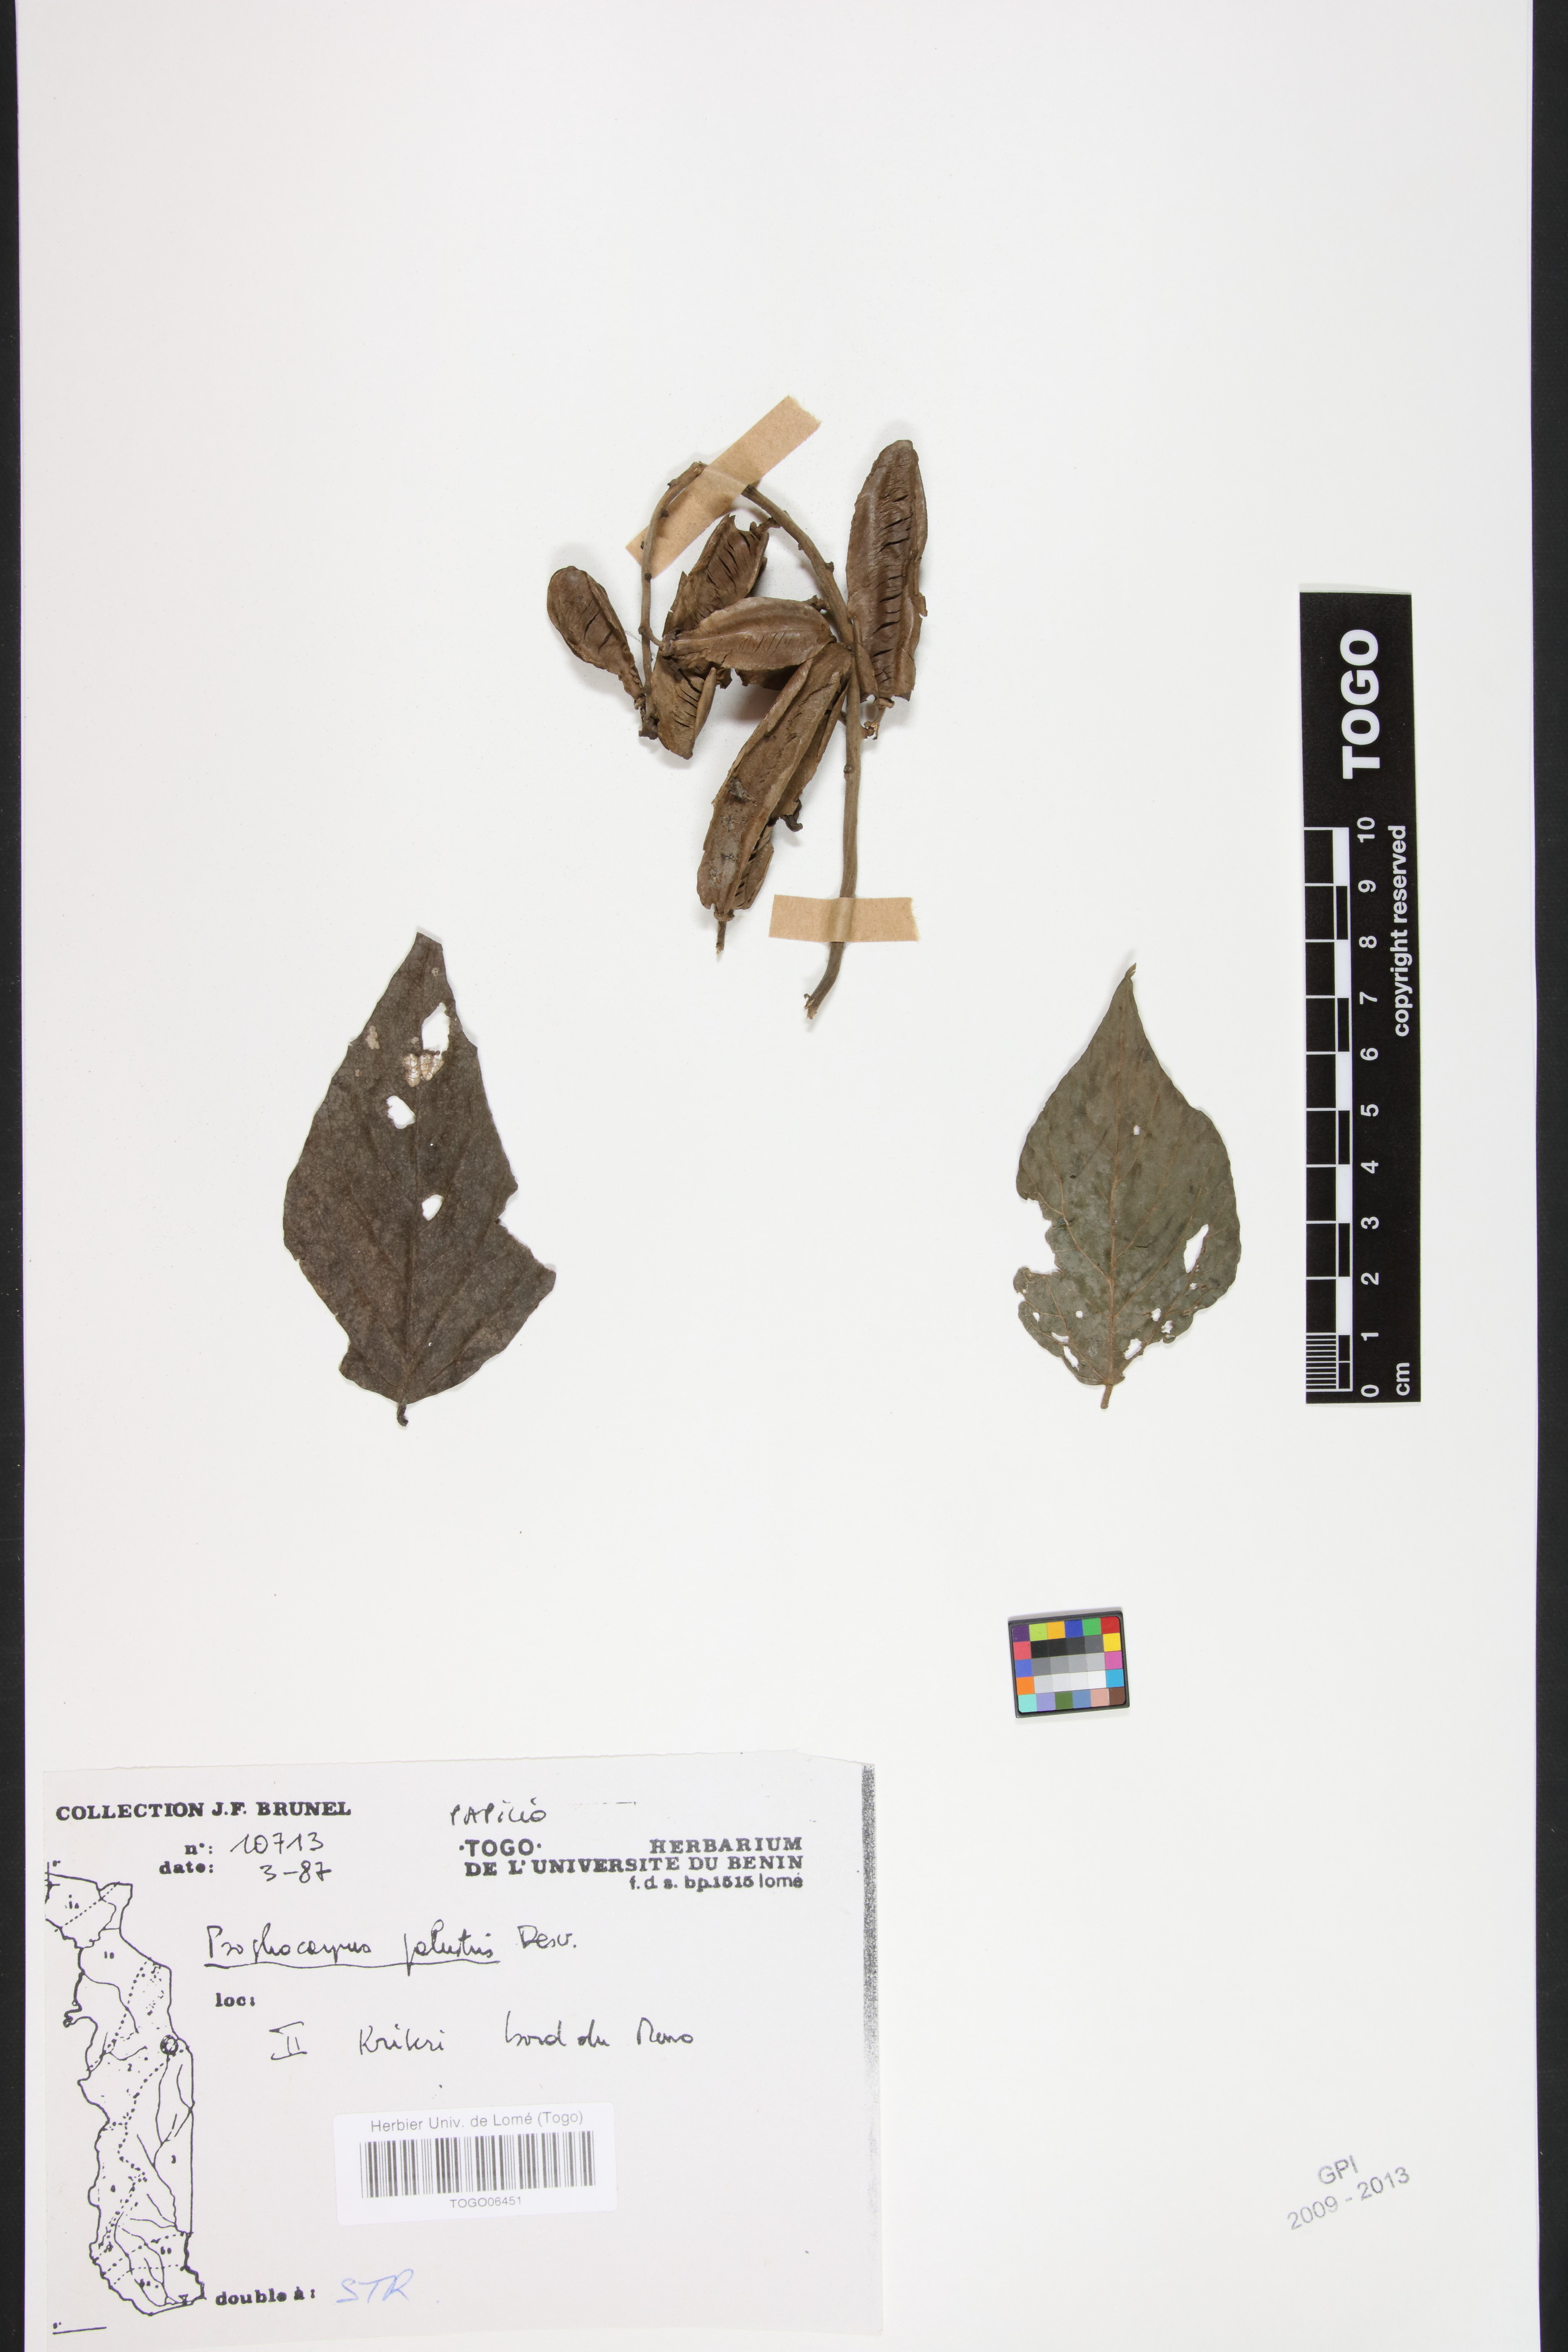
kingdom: Plantae
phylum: Tracheophyta
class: Magnoliopsida
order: Fabales
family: Fabaceae
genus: Psophocarpus
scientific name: Psophocarpus palustris
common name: African winged-bean
